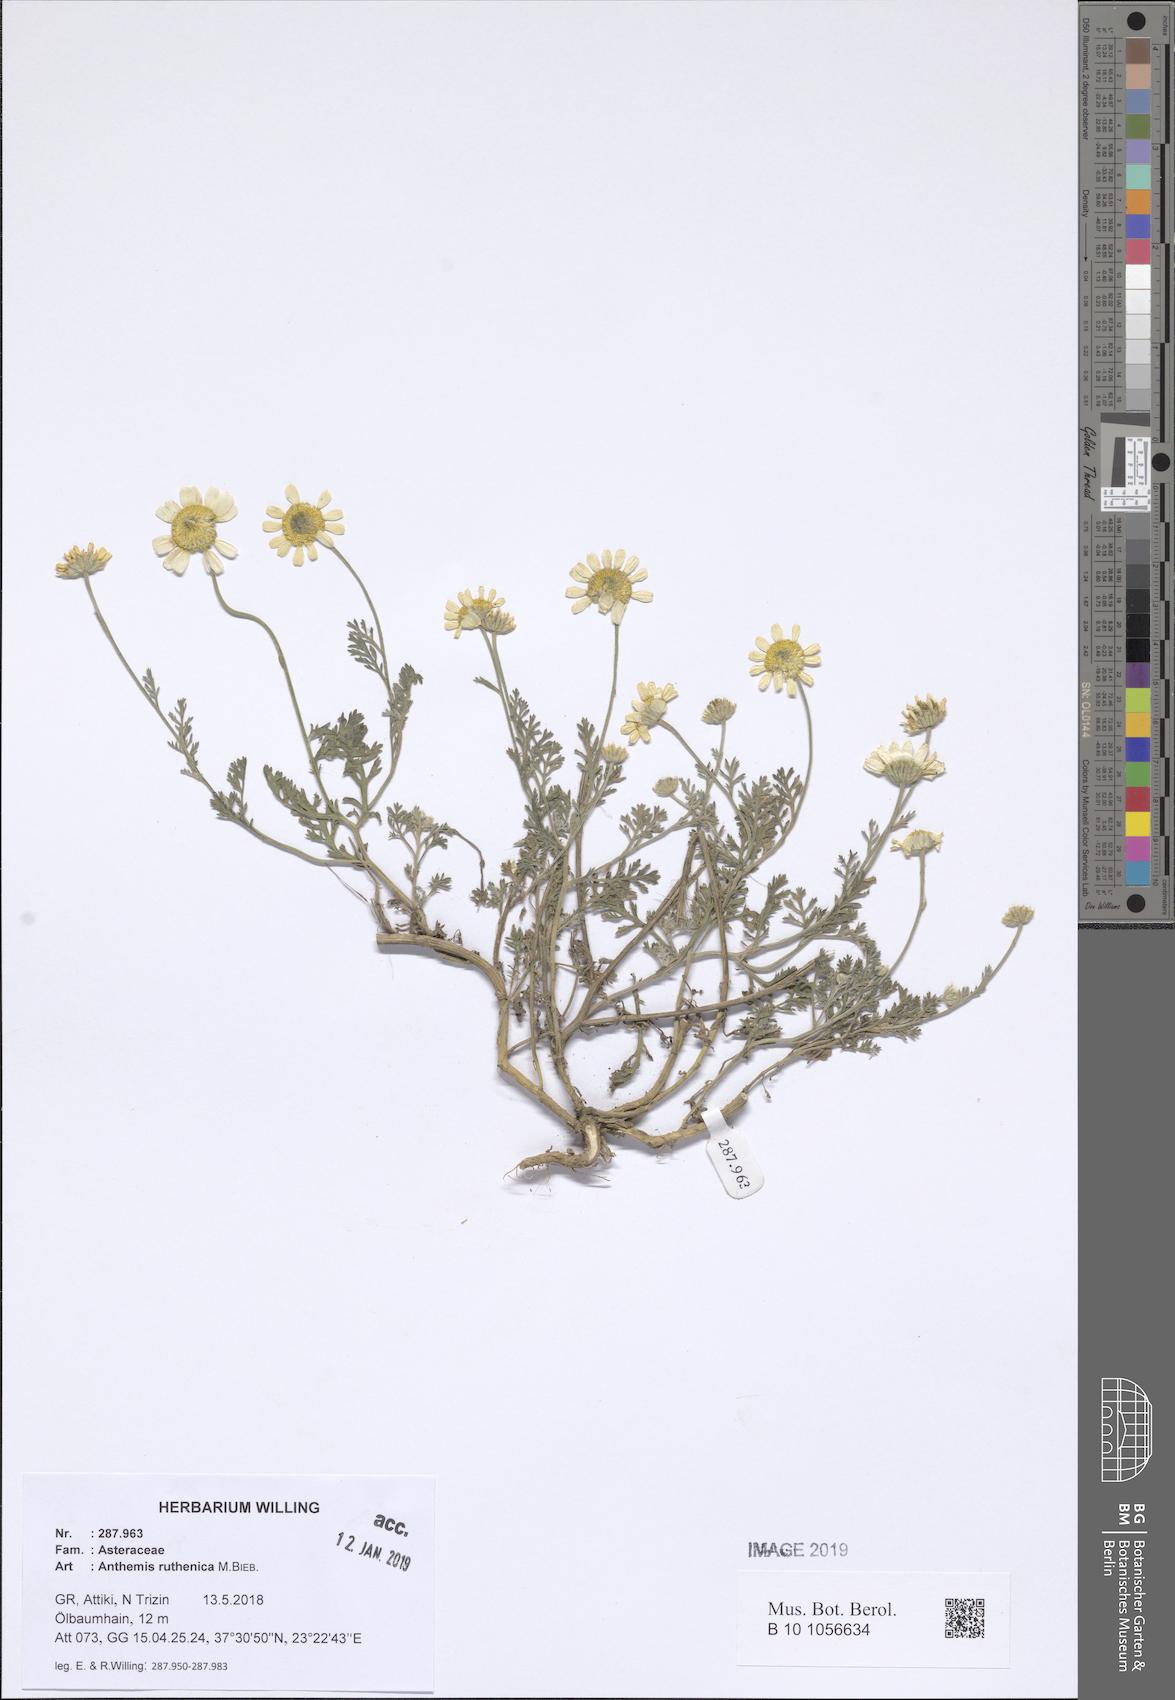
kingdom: Plantae
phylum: Tracheophyta
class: Magnoliopsida
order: Asterales
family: Asteraceae
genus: Anthemis
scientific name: Anthemis ruthenica
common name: Eastern chamomile
